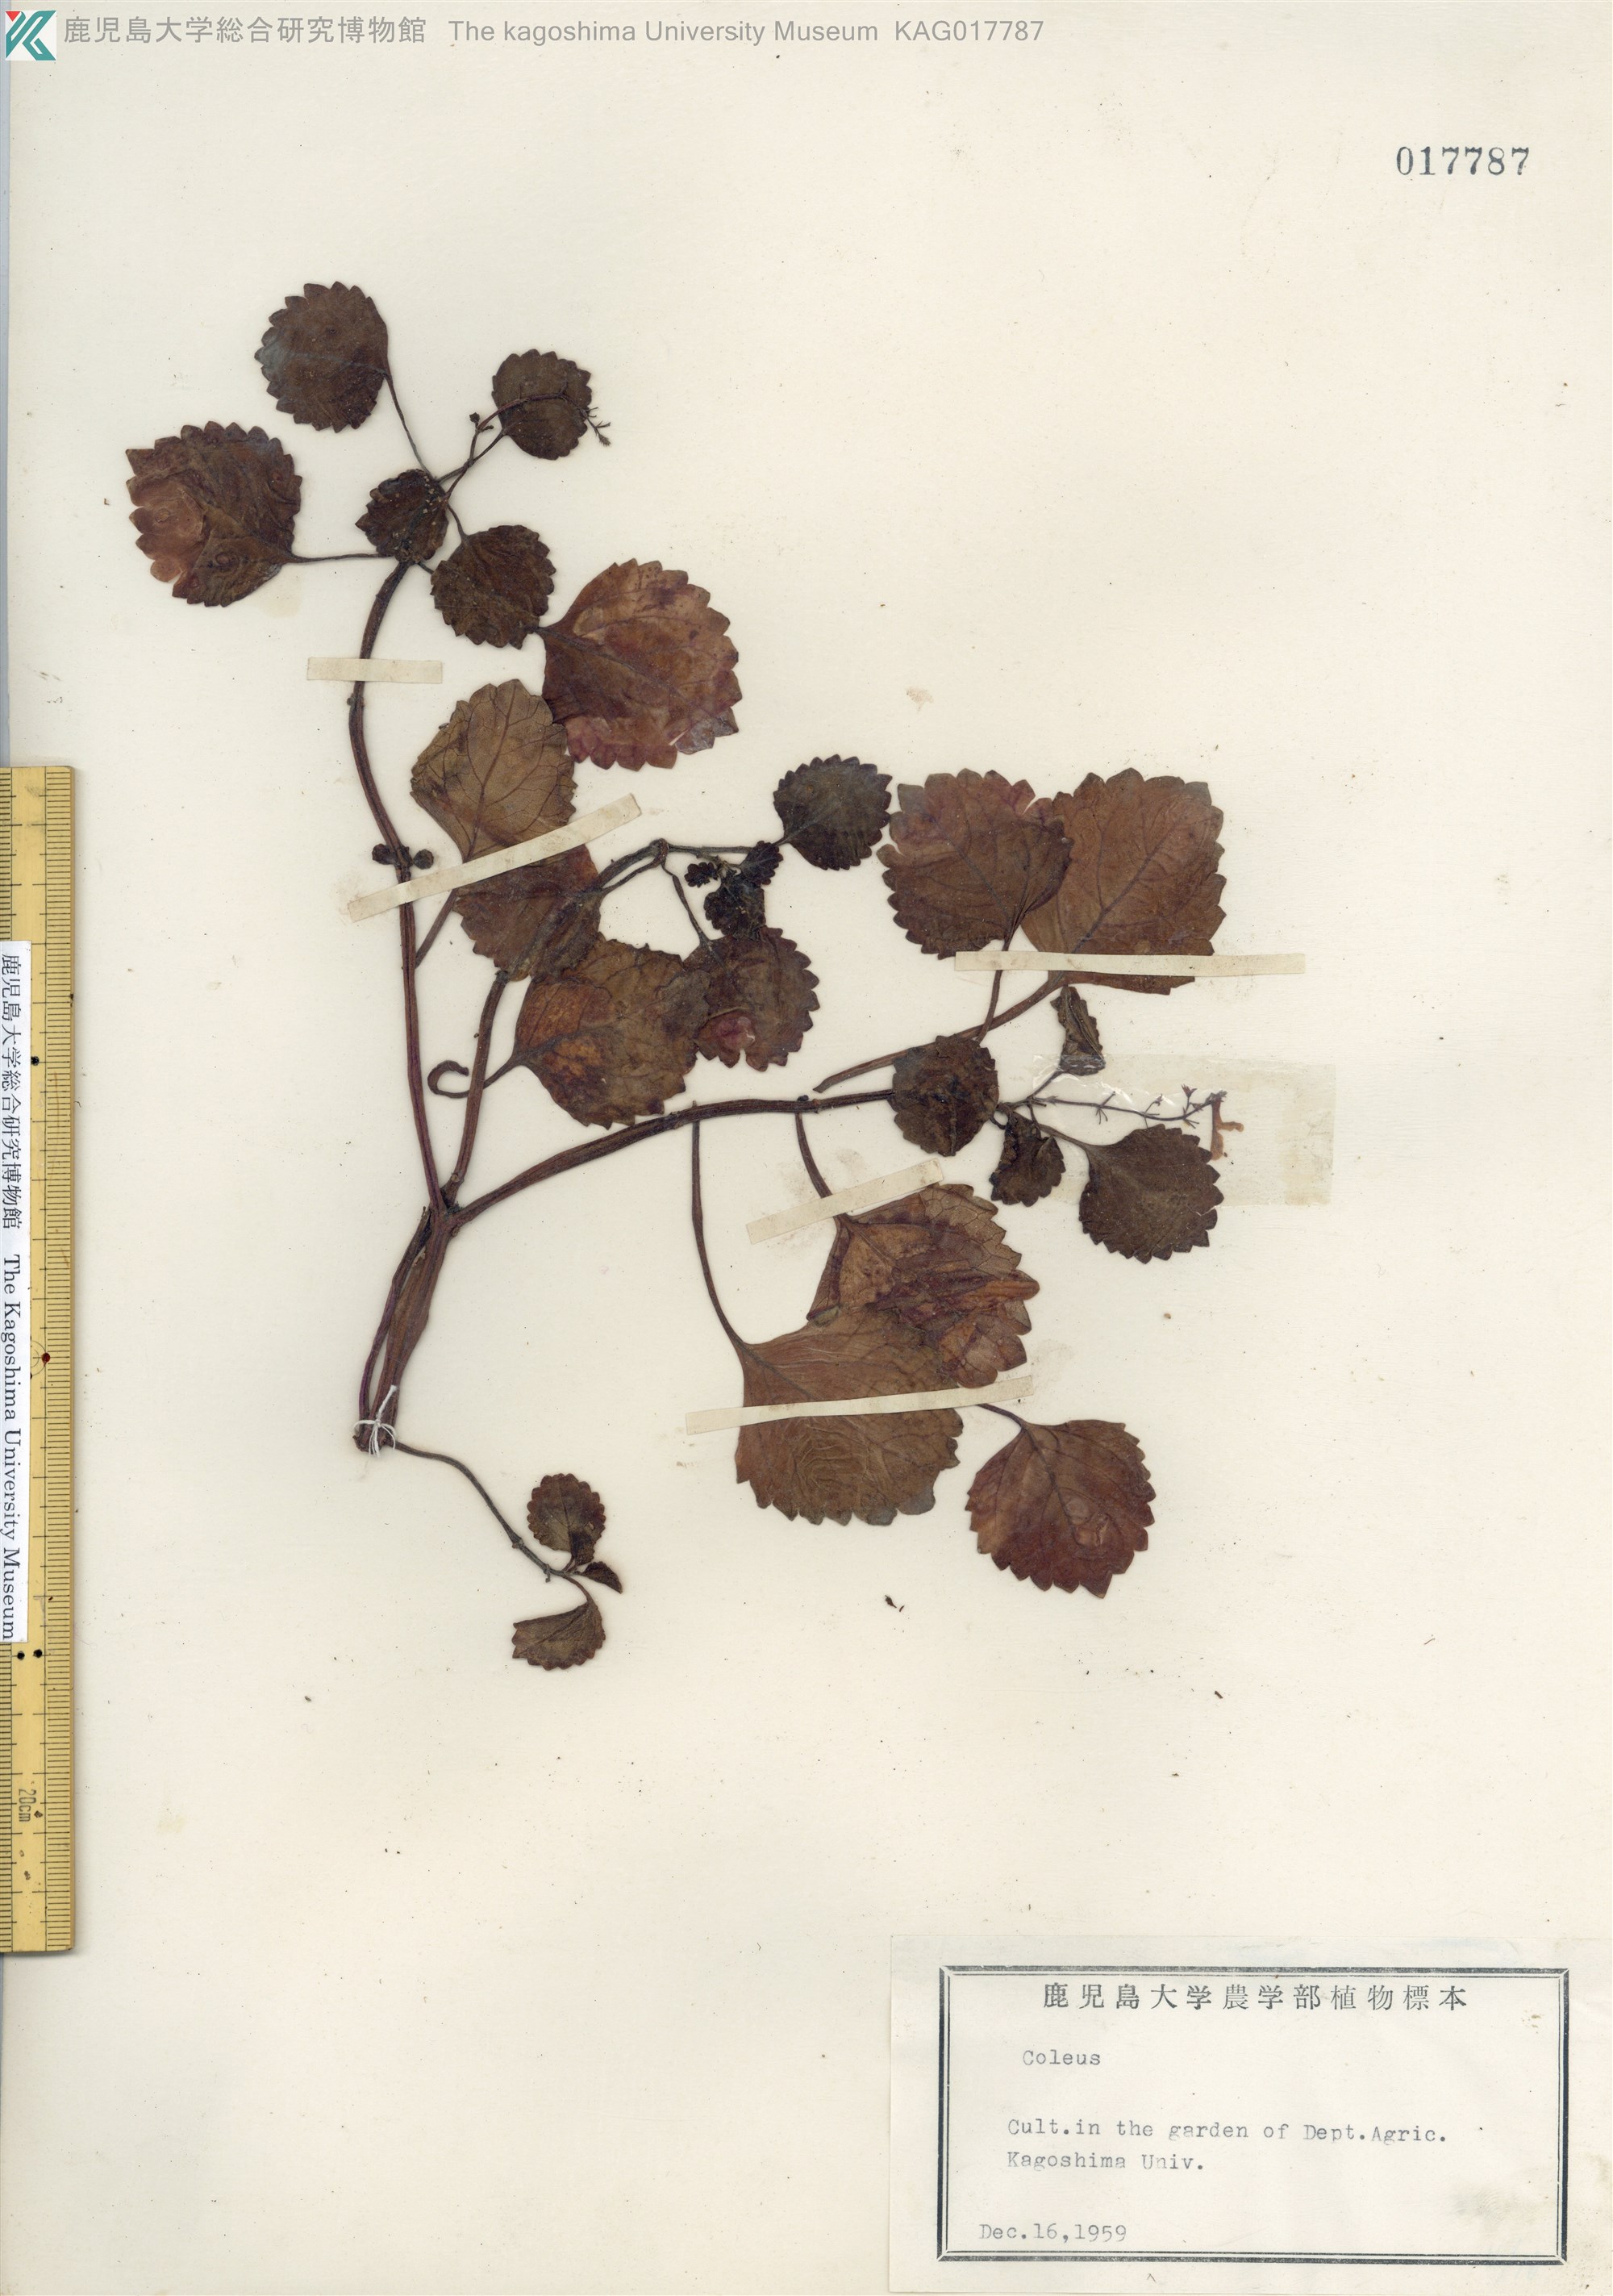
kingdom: Plantae
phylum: Tracheophyta
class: Magnoliopsida
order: Lamiales
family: Lamiaceae
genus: Coleus
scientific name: Coleus parishii
